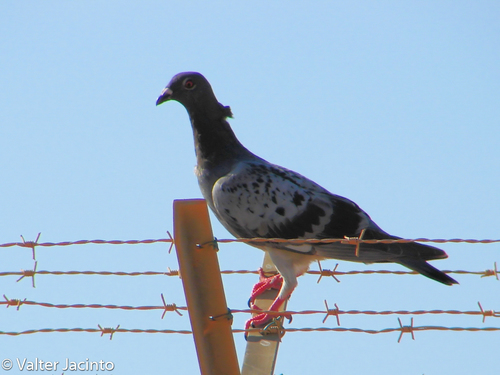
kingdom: Animalia
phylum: Chordata
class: Aves
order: Columbiformes
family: Columbidae
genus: Columba
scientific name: Columba livia
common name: Rock pigeon
